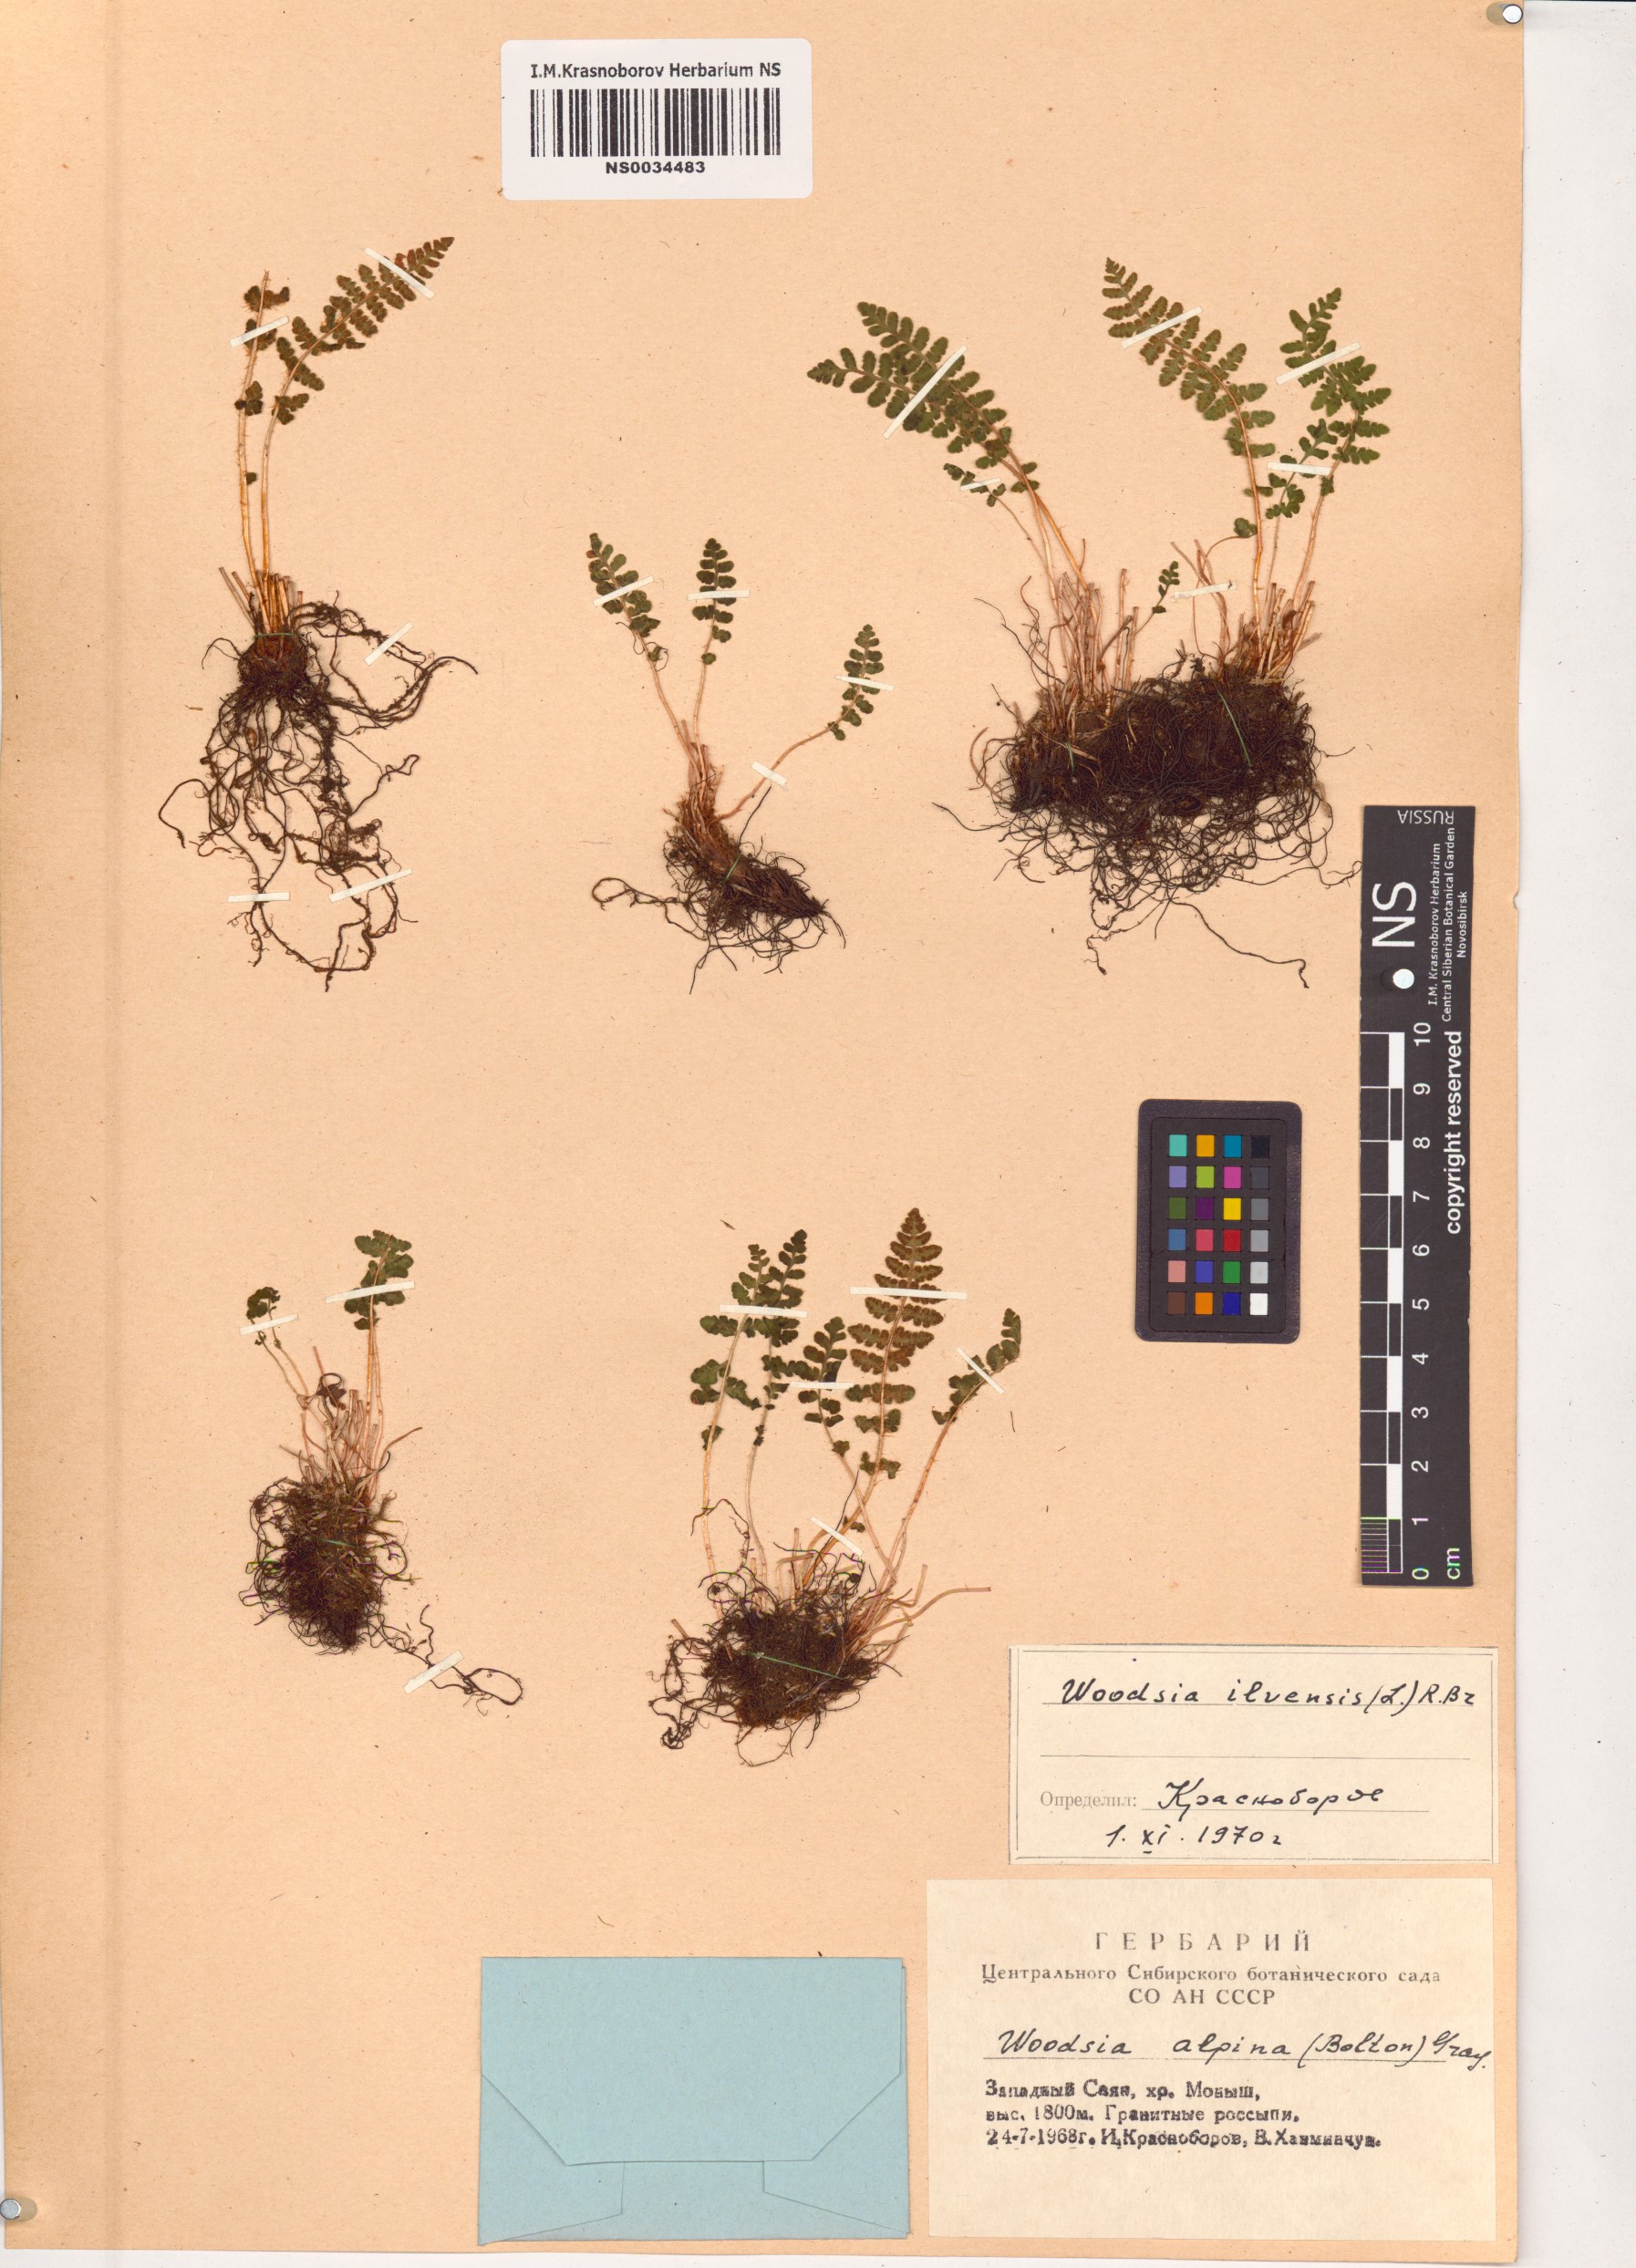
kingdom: Plantae
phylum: Tracheophyta
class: Polypodiopsida
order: Polypodiales
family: Woodsiaceae
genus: Woodsia
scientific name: Woodsia ilvensis
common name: Fragrant woodsia
